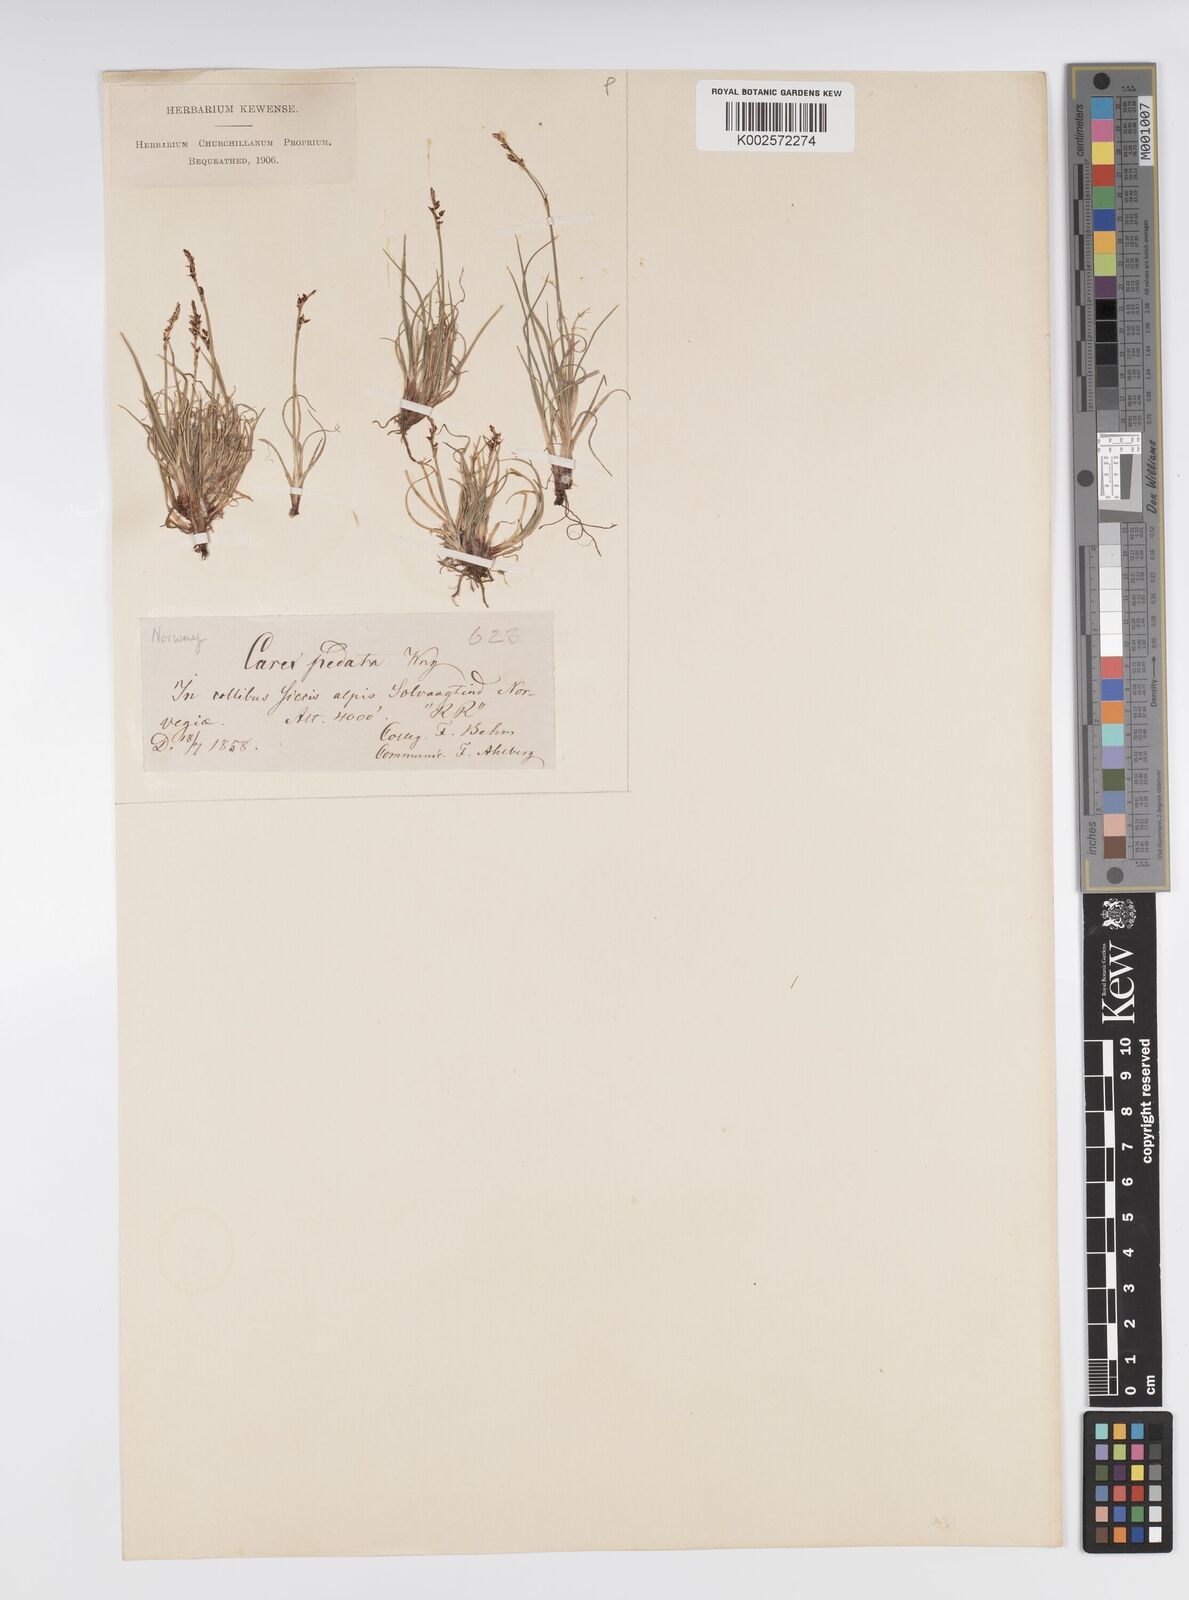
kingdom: Plantae
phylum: Tracheophyta
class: Liliopsida
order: Poales
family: Cyperaceae
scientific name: Cyperaceae
